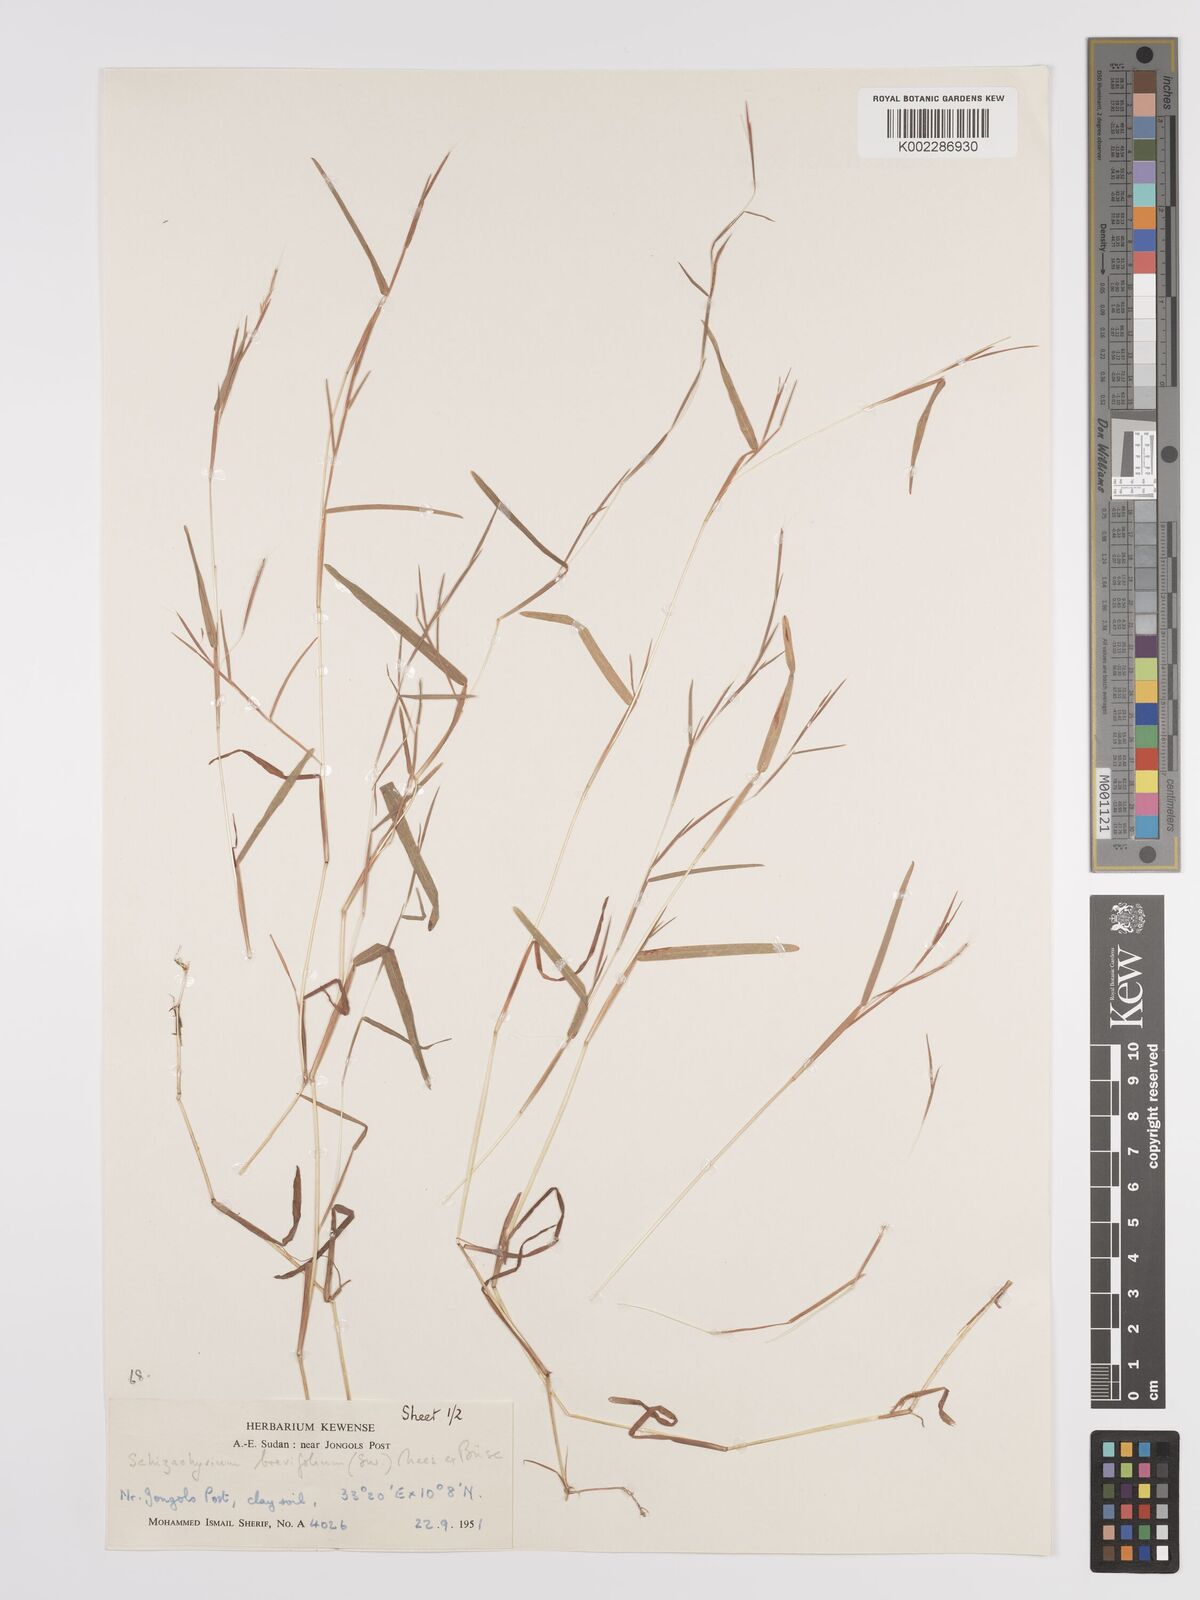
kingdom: Plantae
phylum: Tracheophyta
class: Liliopsida
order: Poales
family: Poaceae
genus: Schizachyrium
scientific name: Schizachyrium brevifolium
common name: Serillo dulce
